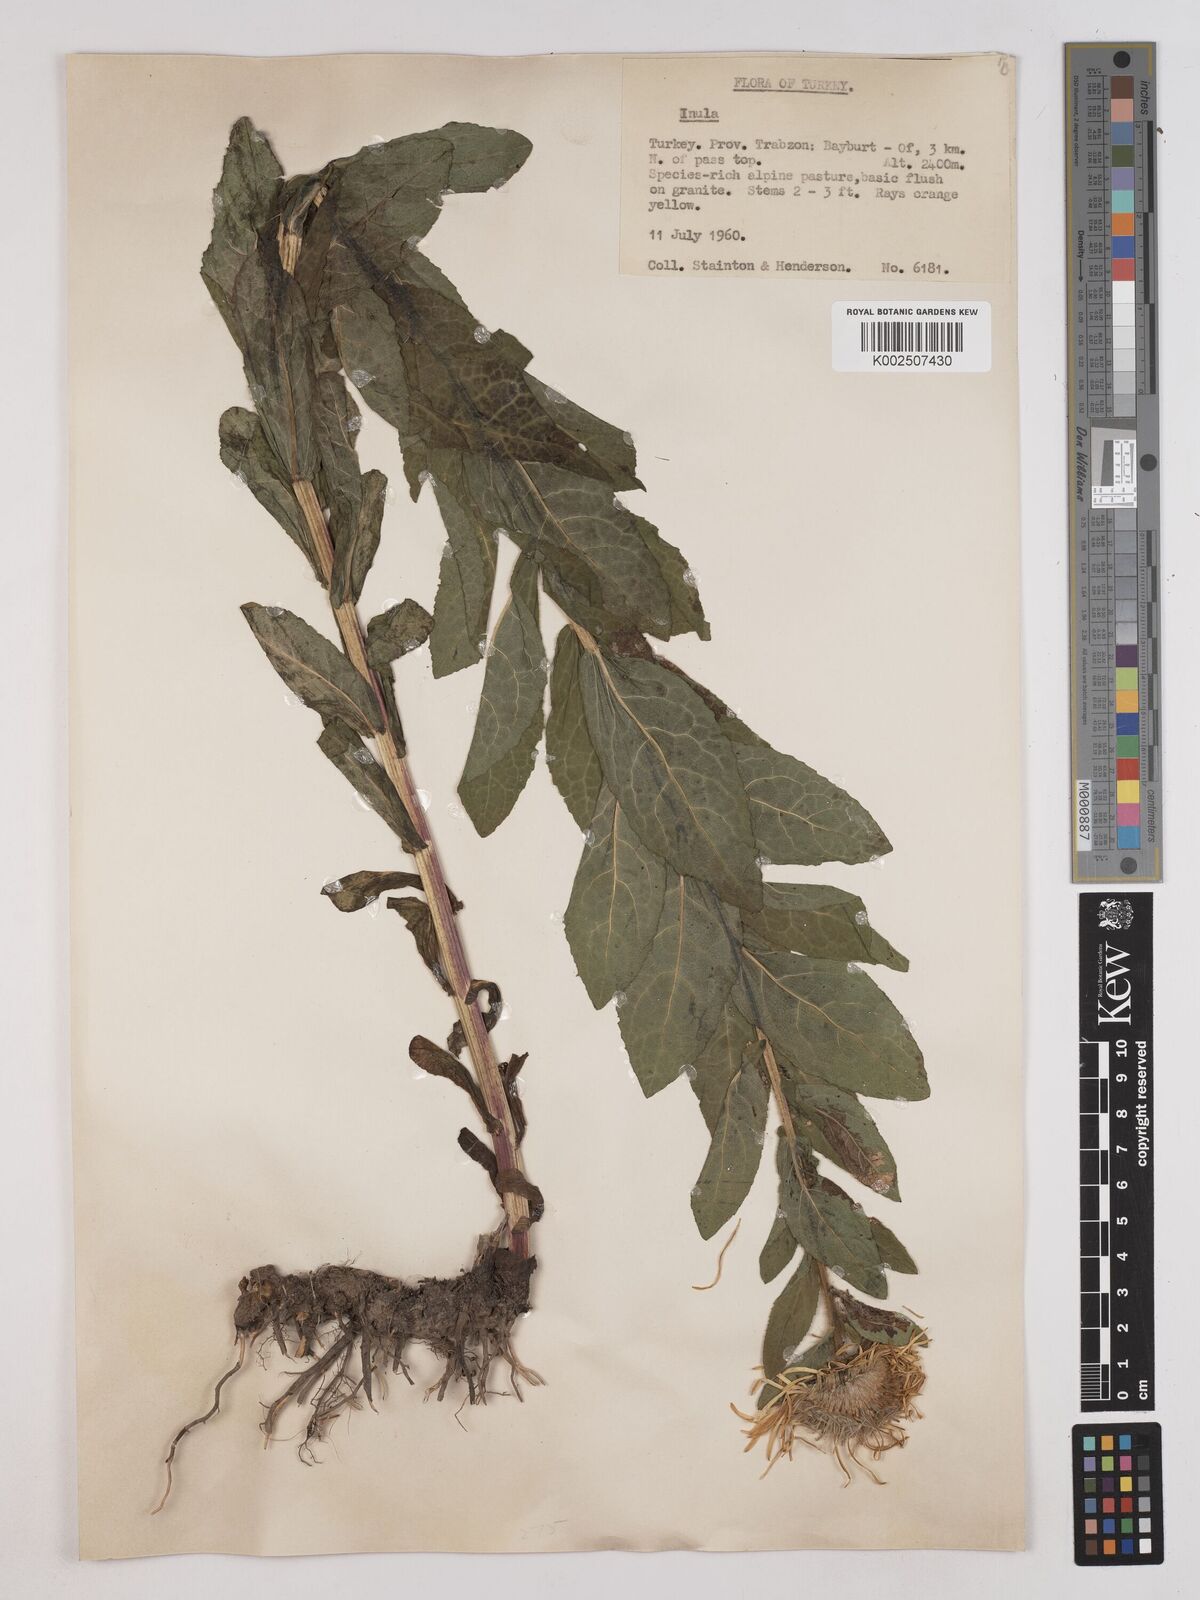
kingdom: Plantae
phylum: Tracheophyta
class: Magnoliopsida
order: Asterales
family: Asteraceae
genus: Pentanema
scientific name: Pentanema orientale
